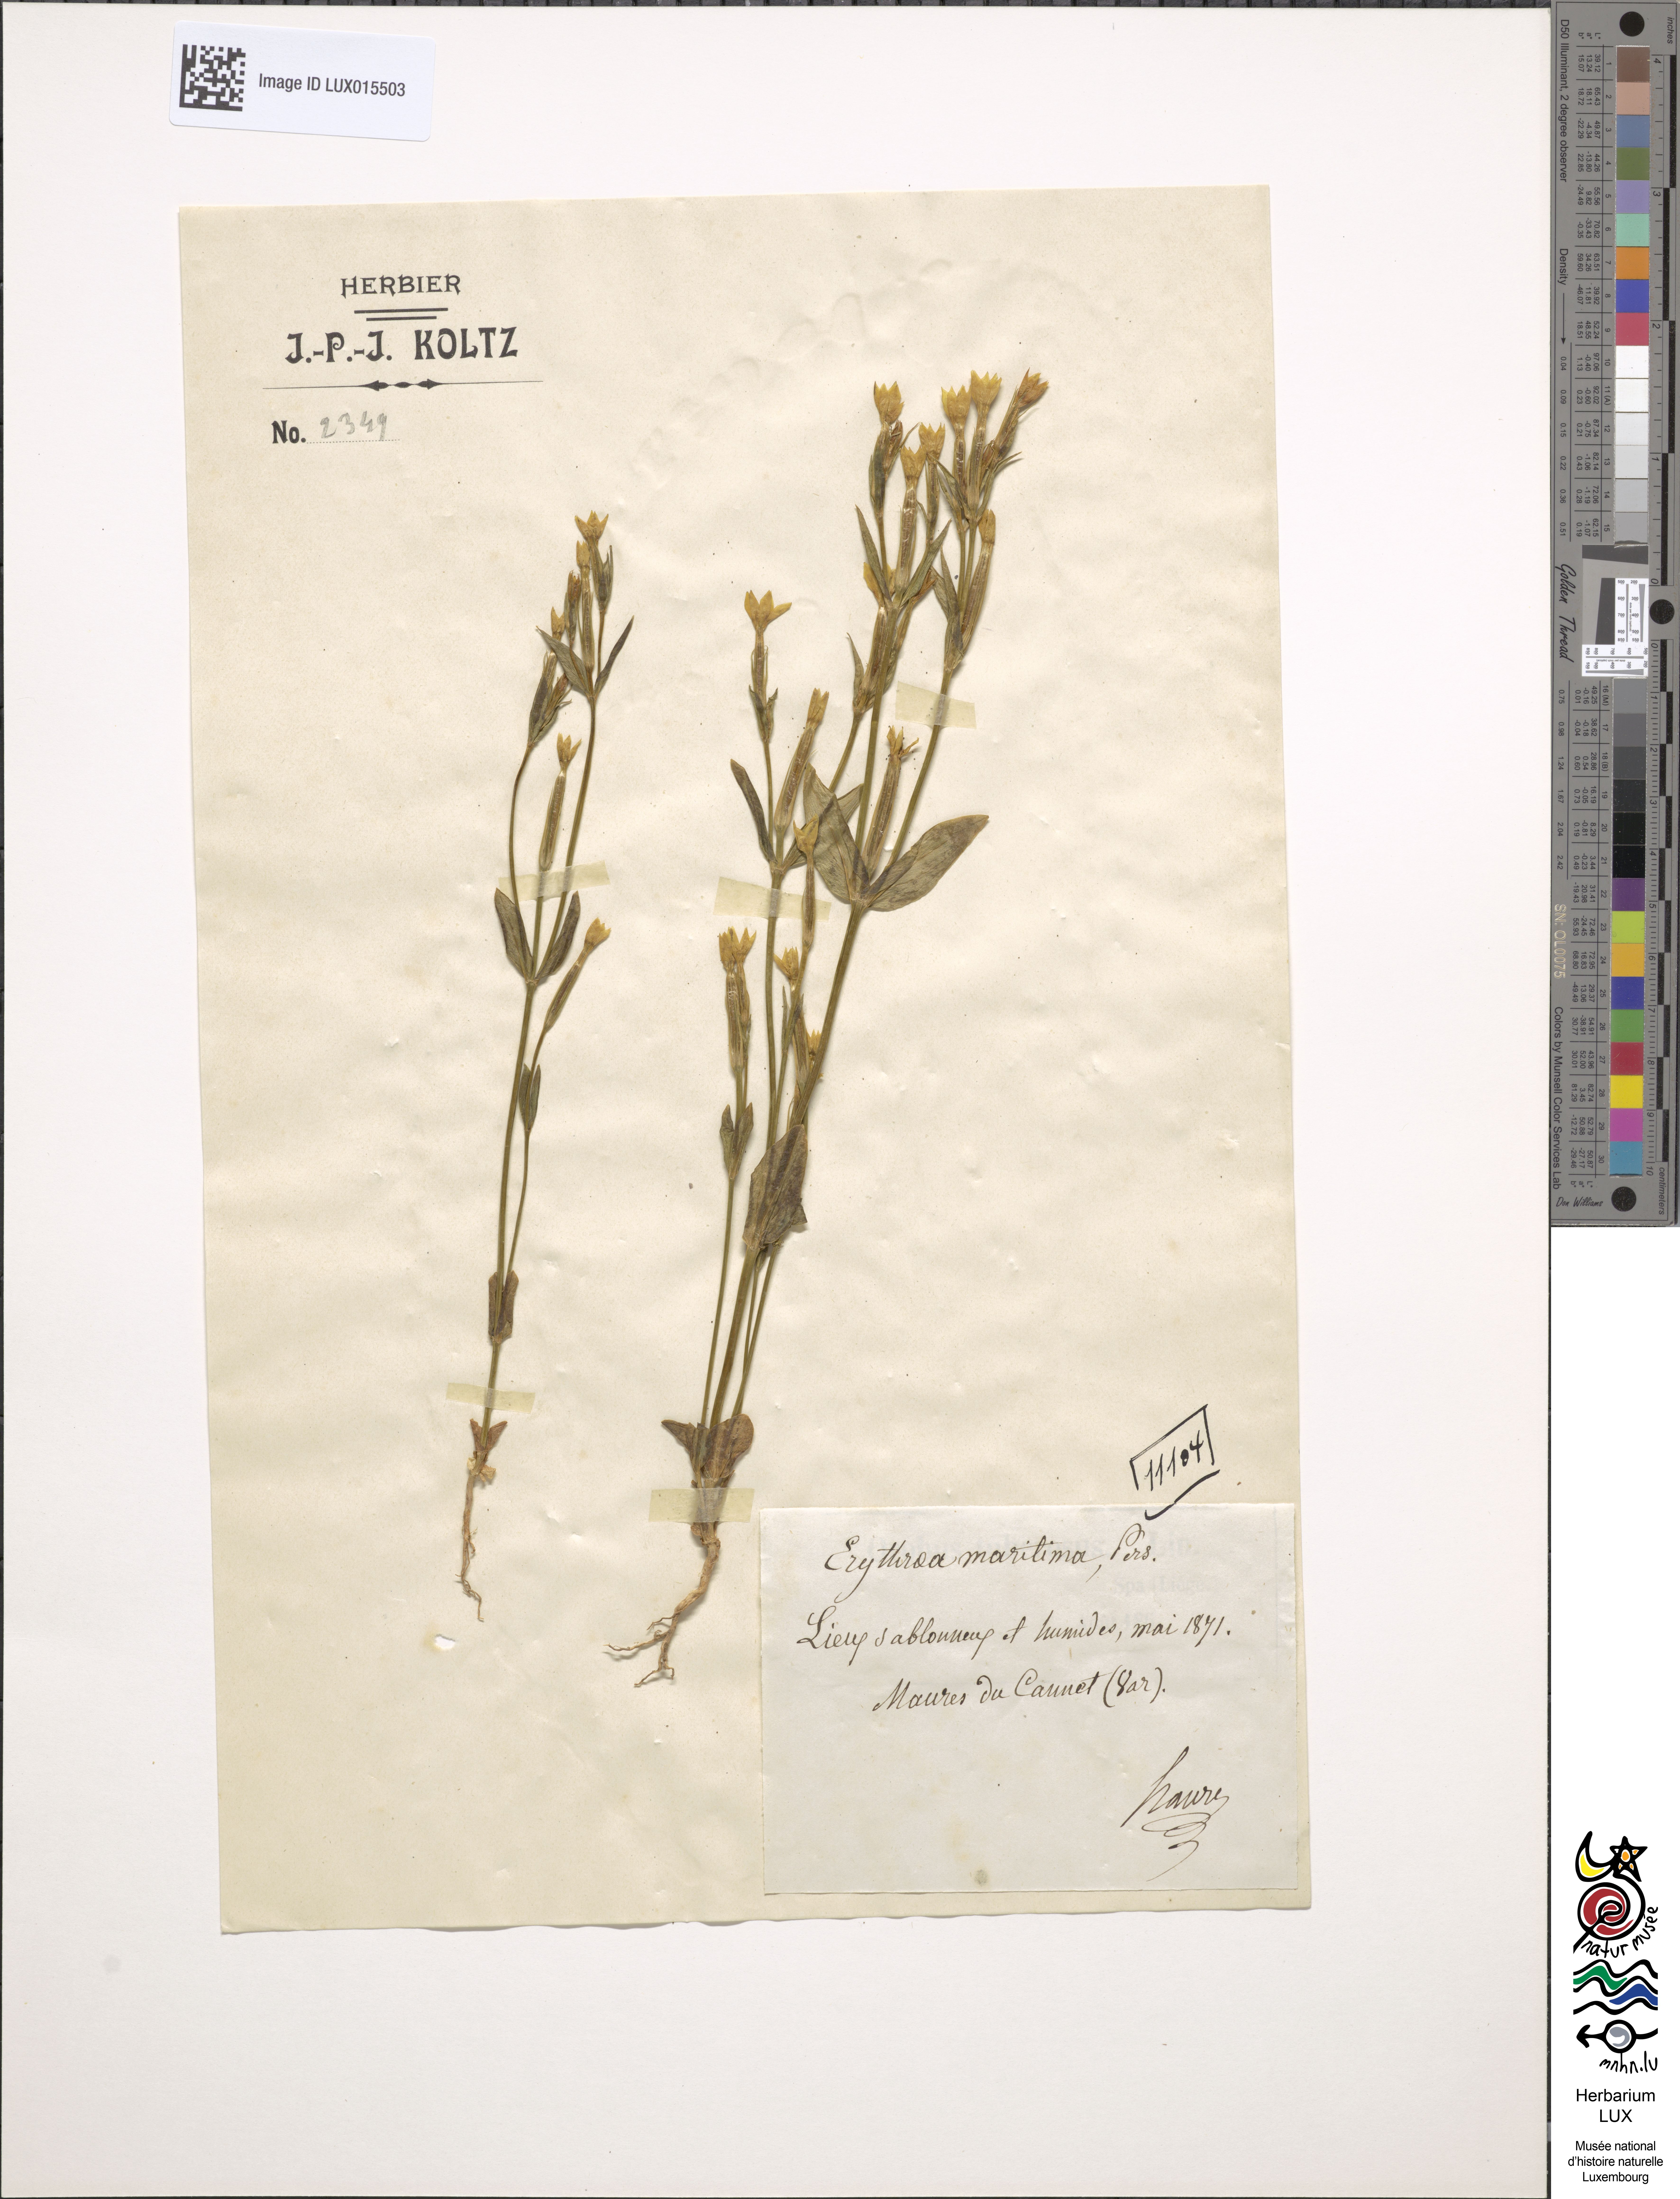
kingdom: Plantae
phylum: Tracheophyta
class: Magnoliopsida
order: Gentianales
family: Gentianaceae
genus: Centaurium
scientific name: Centaurium maritimum
